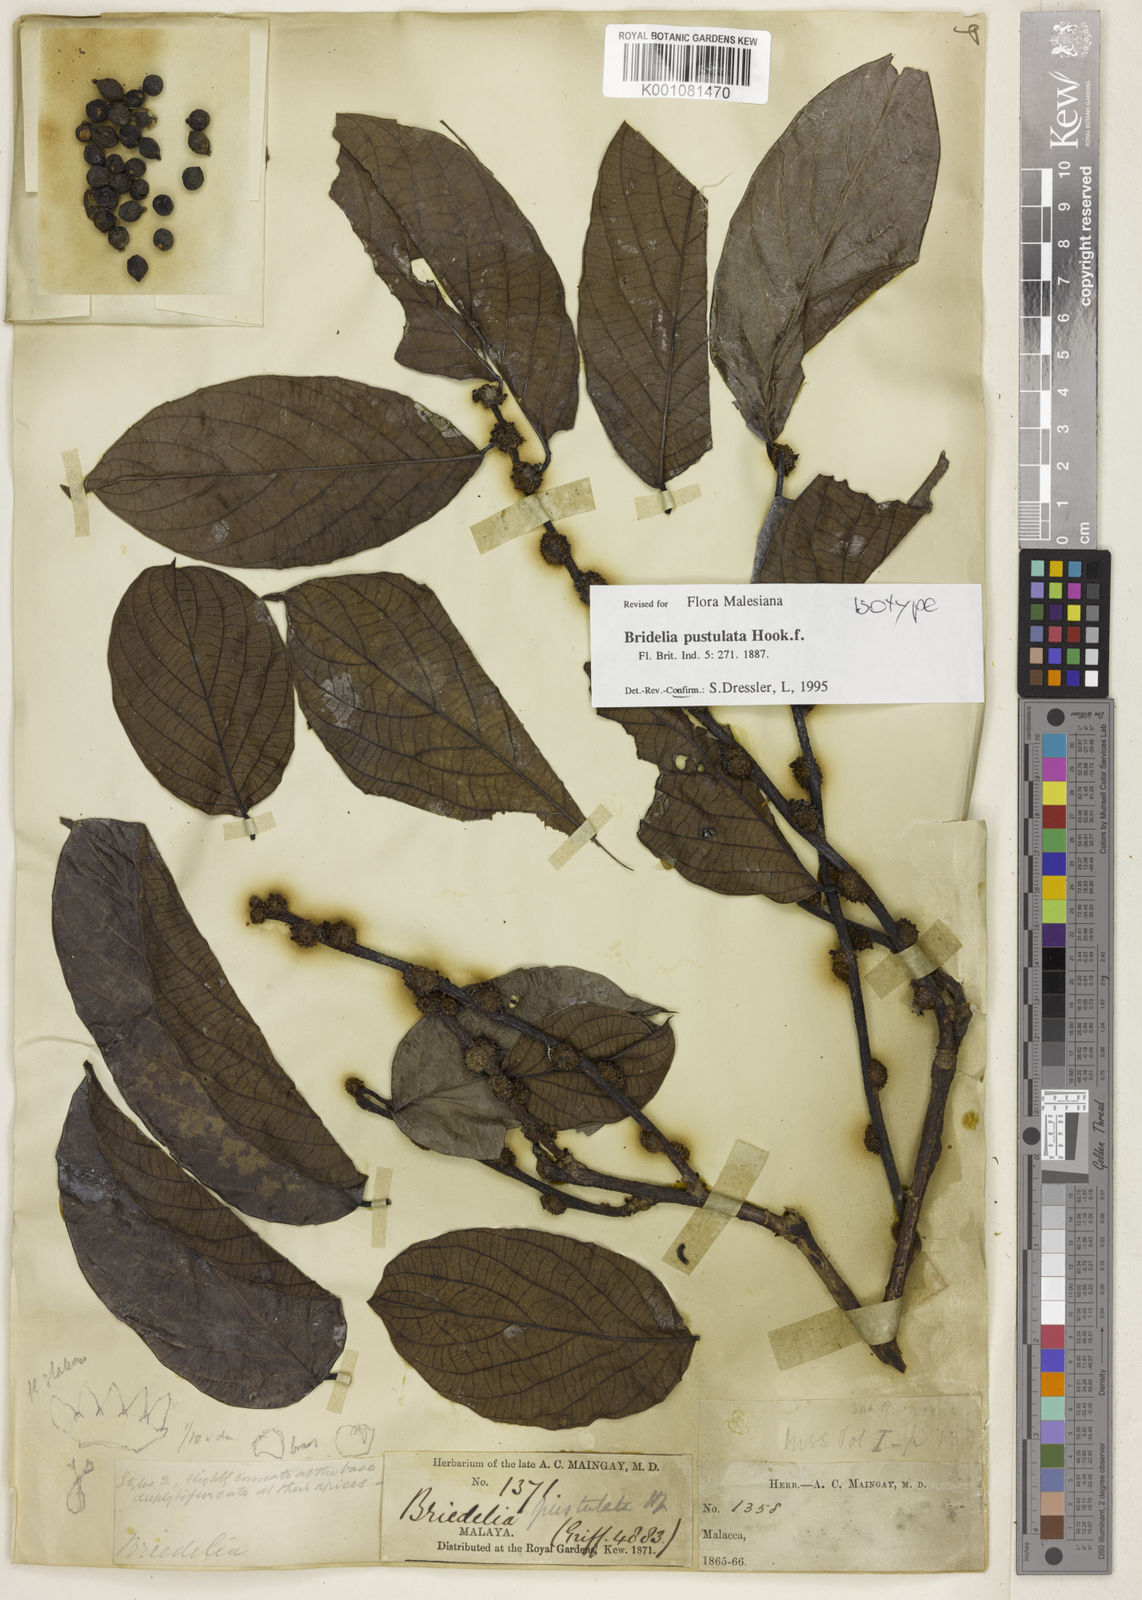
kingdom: Plantae
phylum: Tracheophyta
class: Magnoliopsida
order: Malpighiales
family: Phyllanthaceae
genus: Bridelia
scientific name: Bridelia pustulata
